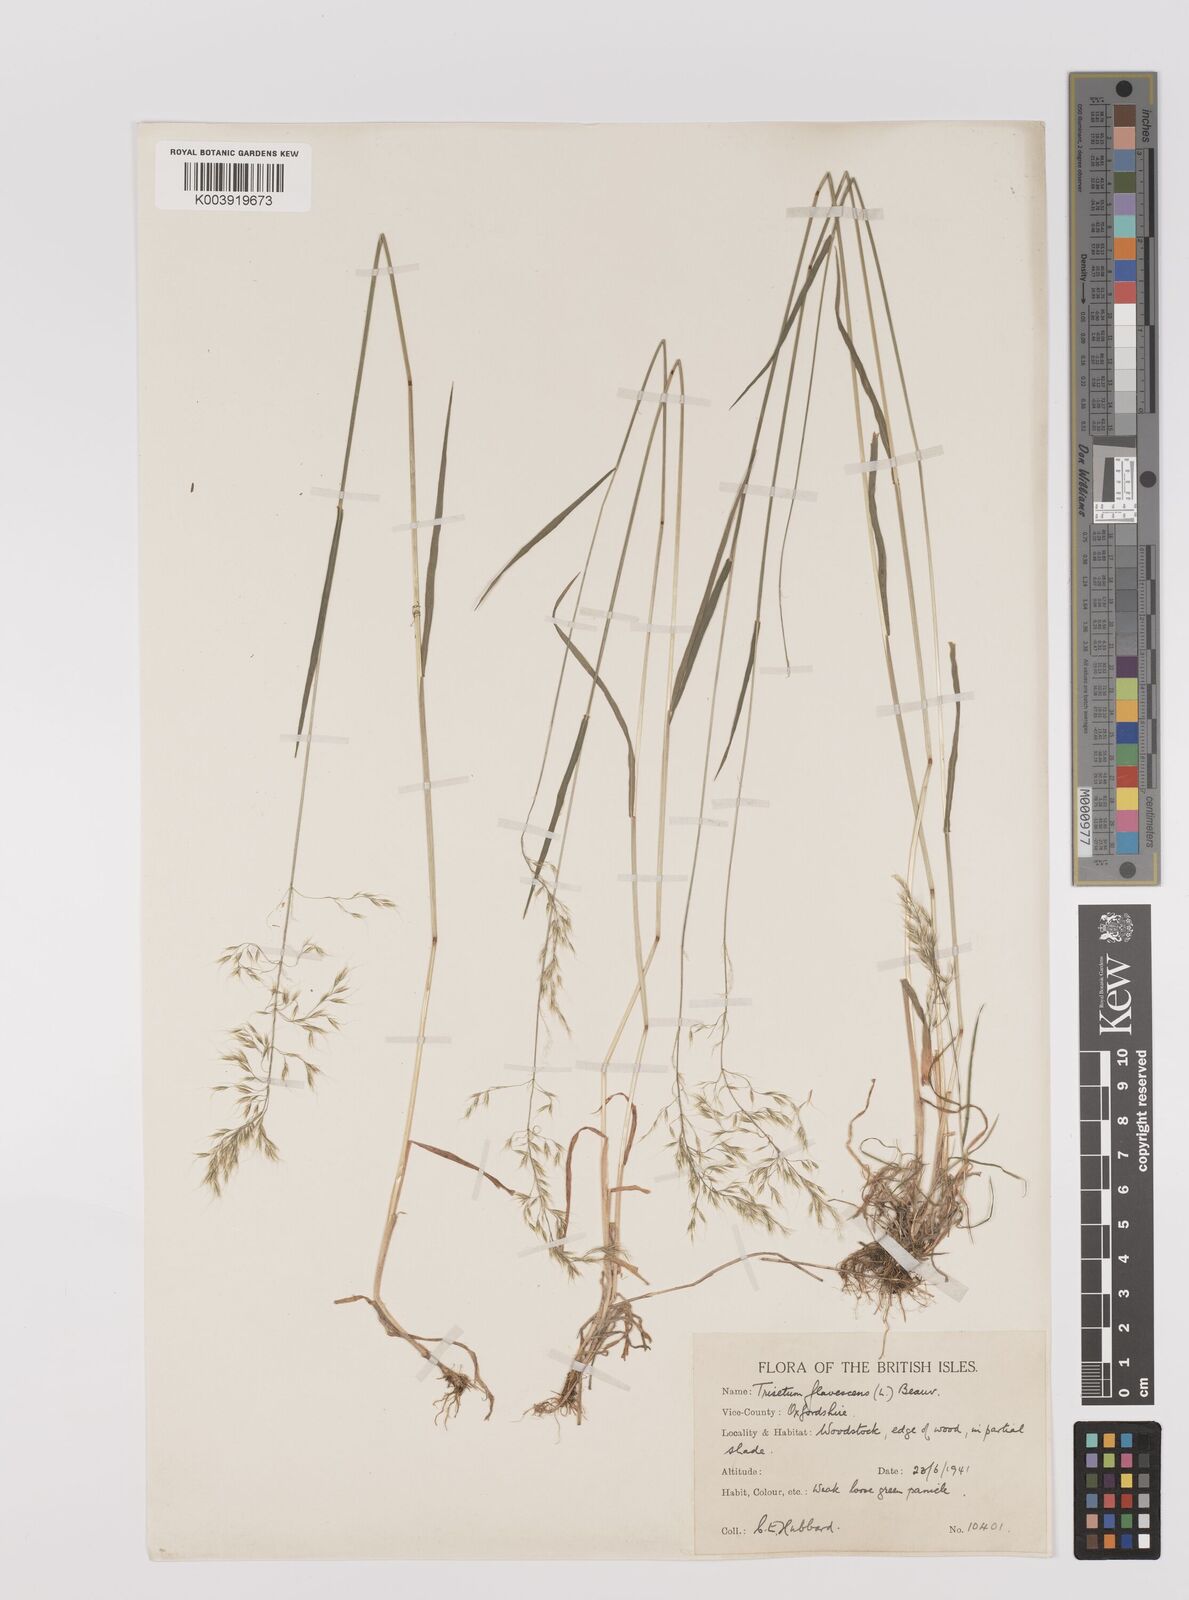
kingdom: Plantae
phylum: Tracheophyta
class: Liliopsida
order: Poales
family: Poaceae
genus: Trisetum
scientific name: Trisetum flavescens
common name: Yellow oat-grass
